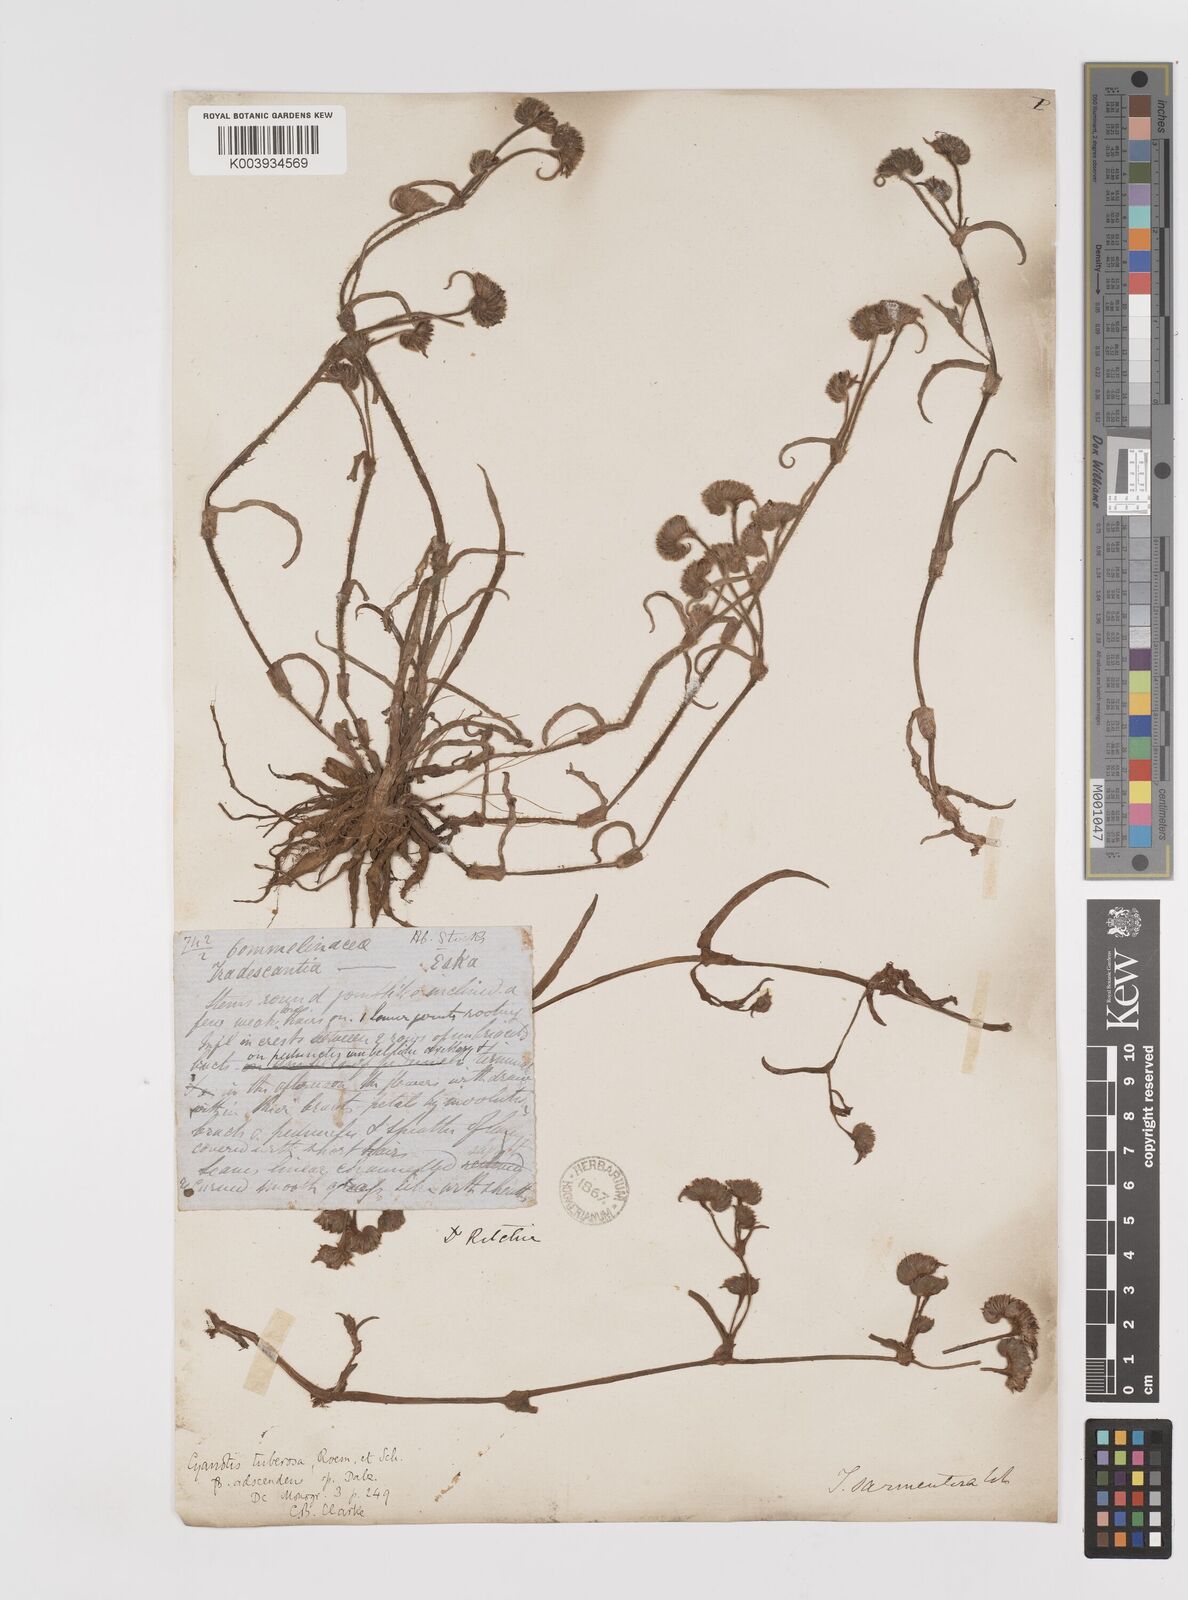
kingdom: Plantae
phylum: Tracheophyta
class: Liliopsida
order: Commelinales
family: Commelinaceae
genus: Cyanotis
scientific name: Cyanotis tuberosa
